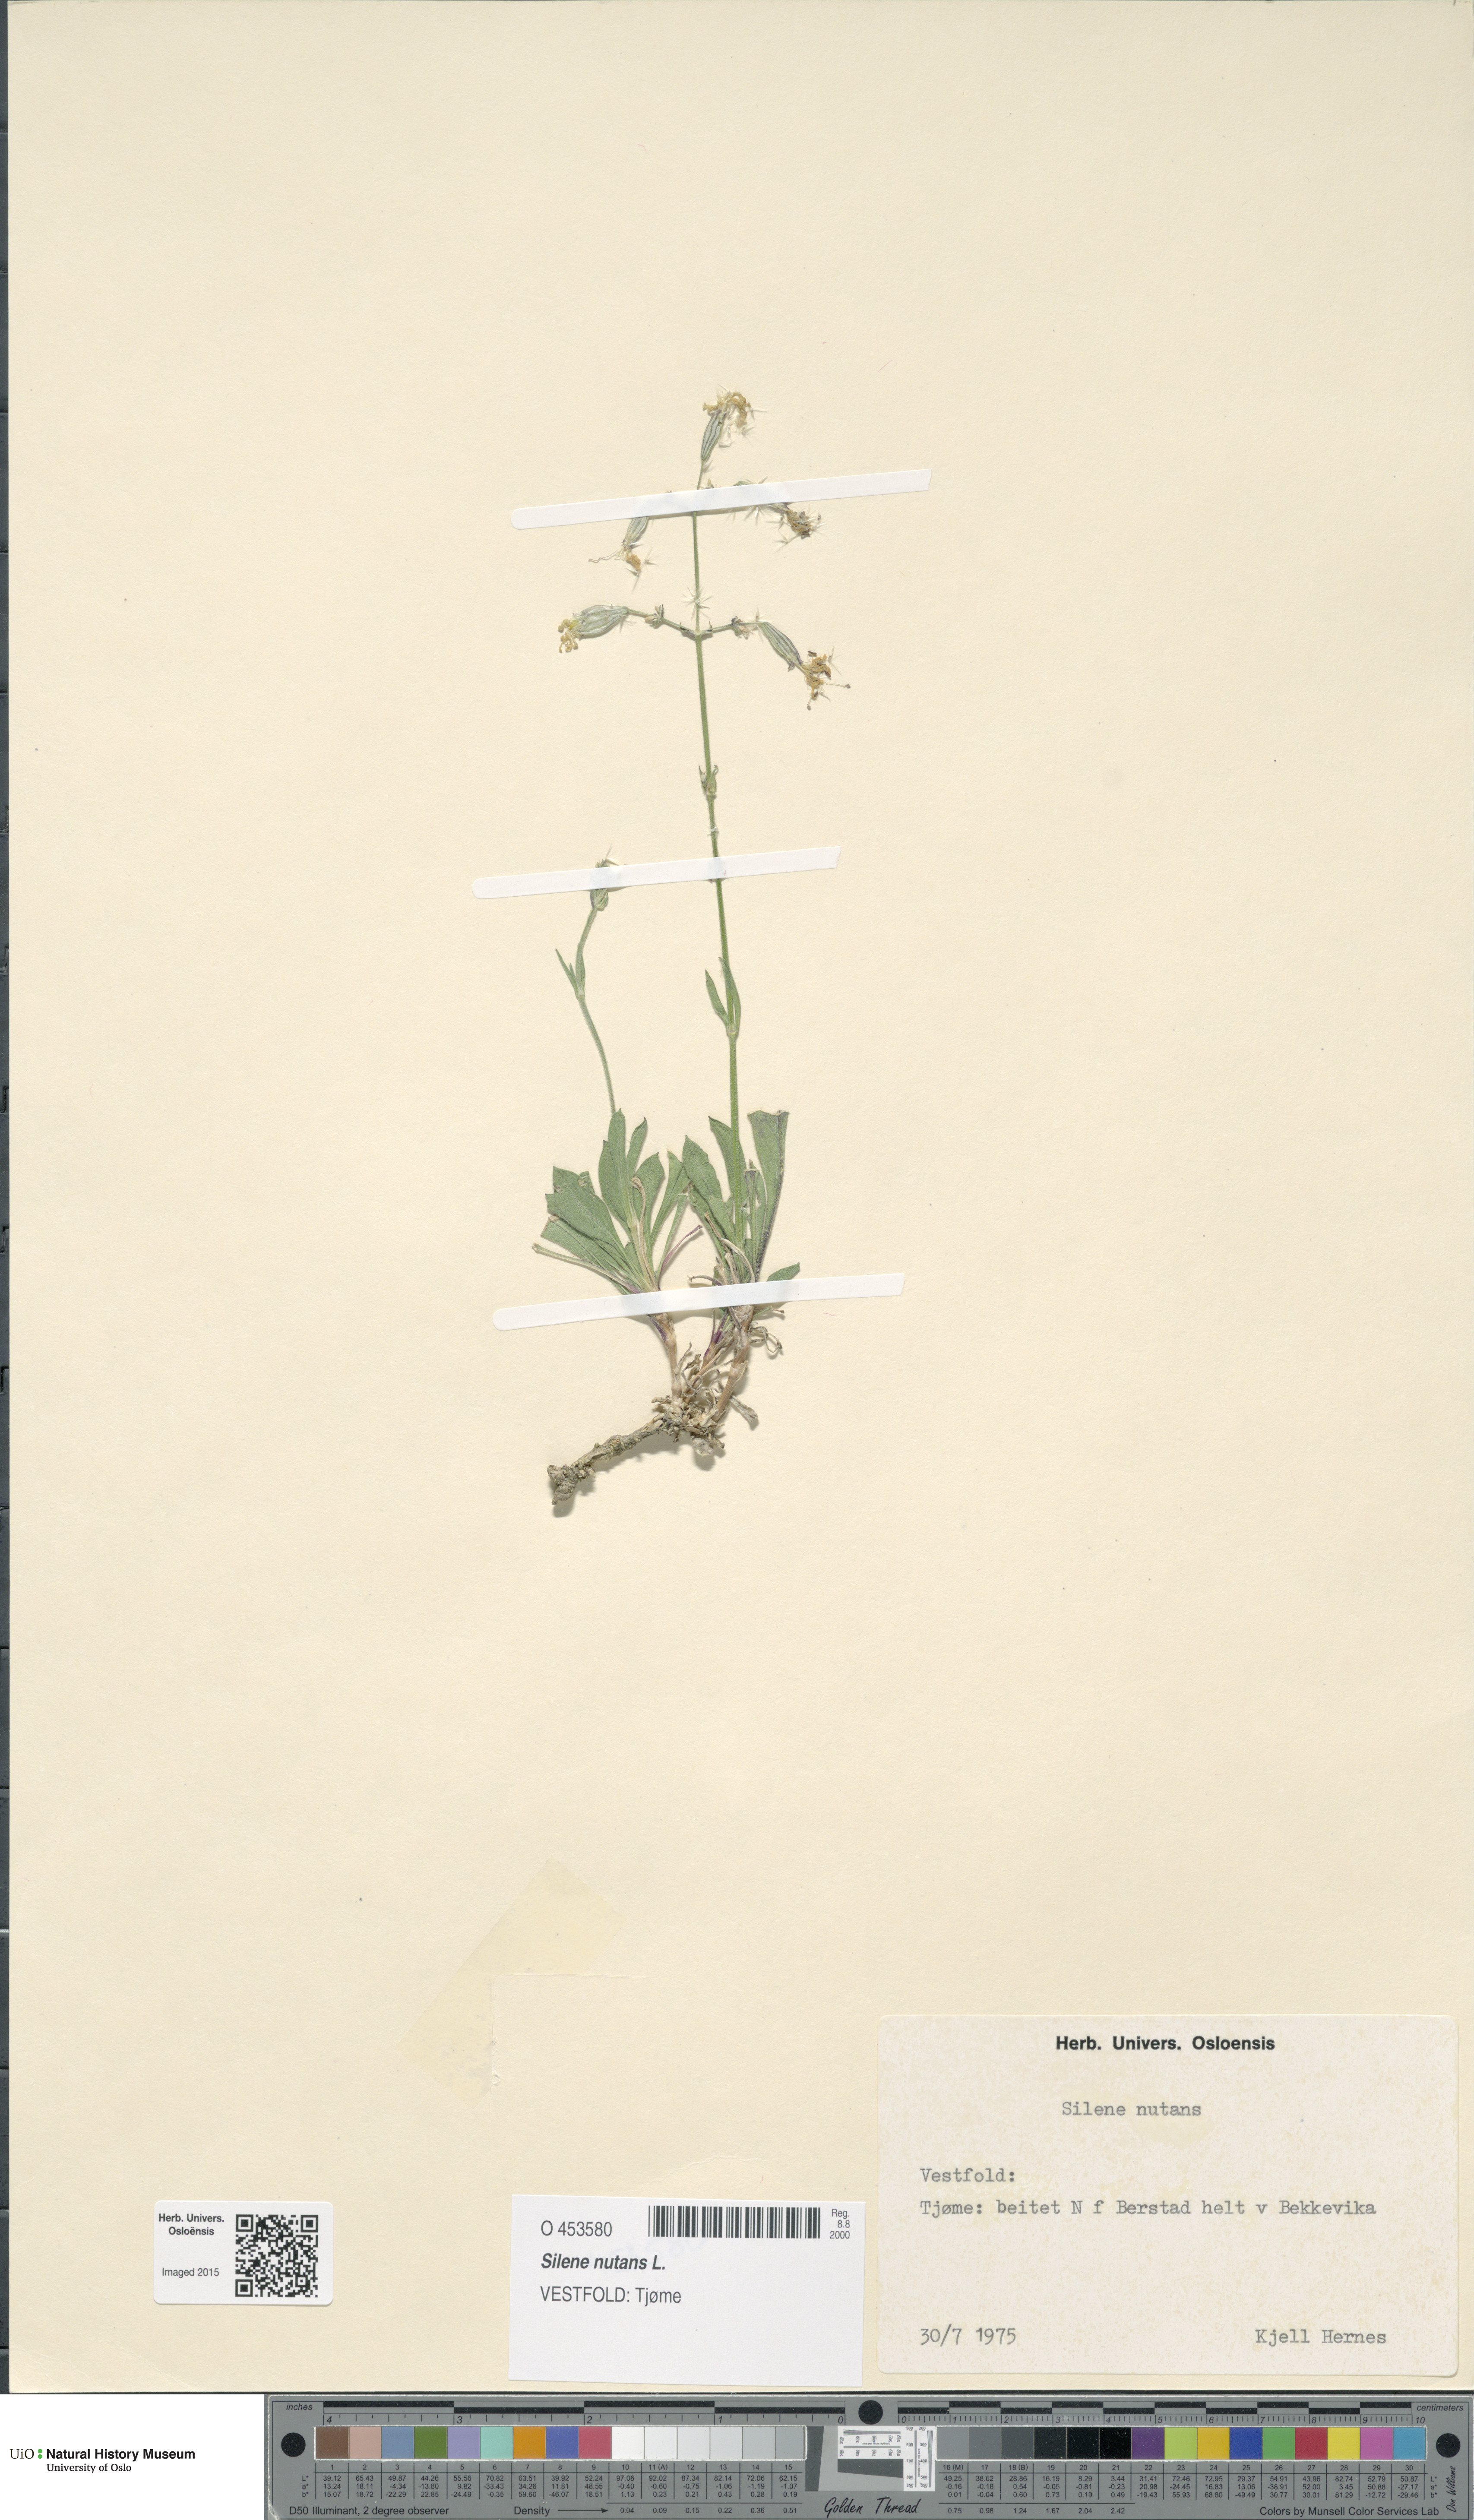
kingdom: Plantae
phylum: Tracheophyta
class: Magnoliopsida
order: Caryophyllales
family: Caryophyllaceae
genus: Silene
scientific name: Silene nutans
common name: Nottingham catchfly
